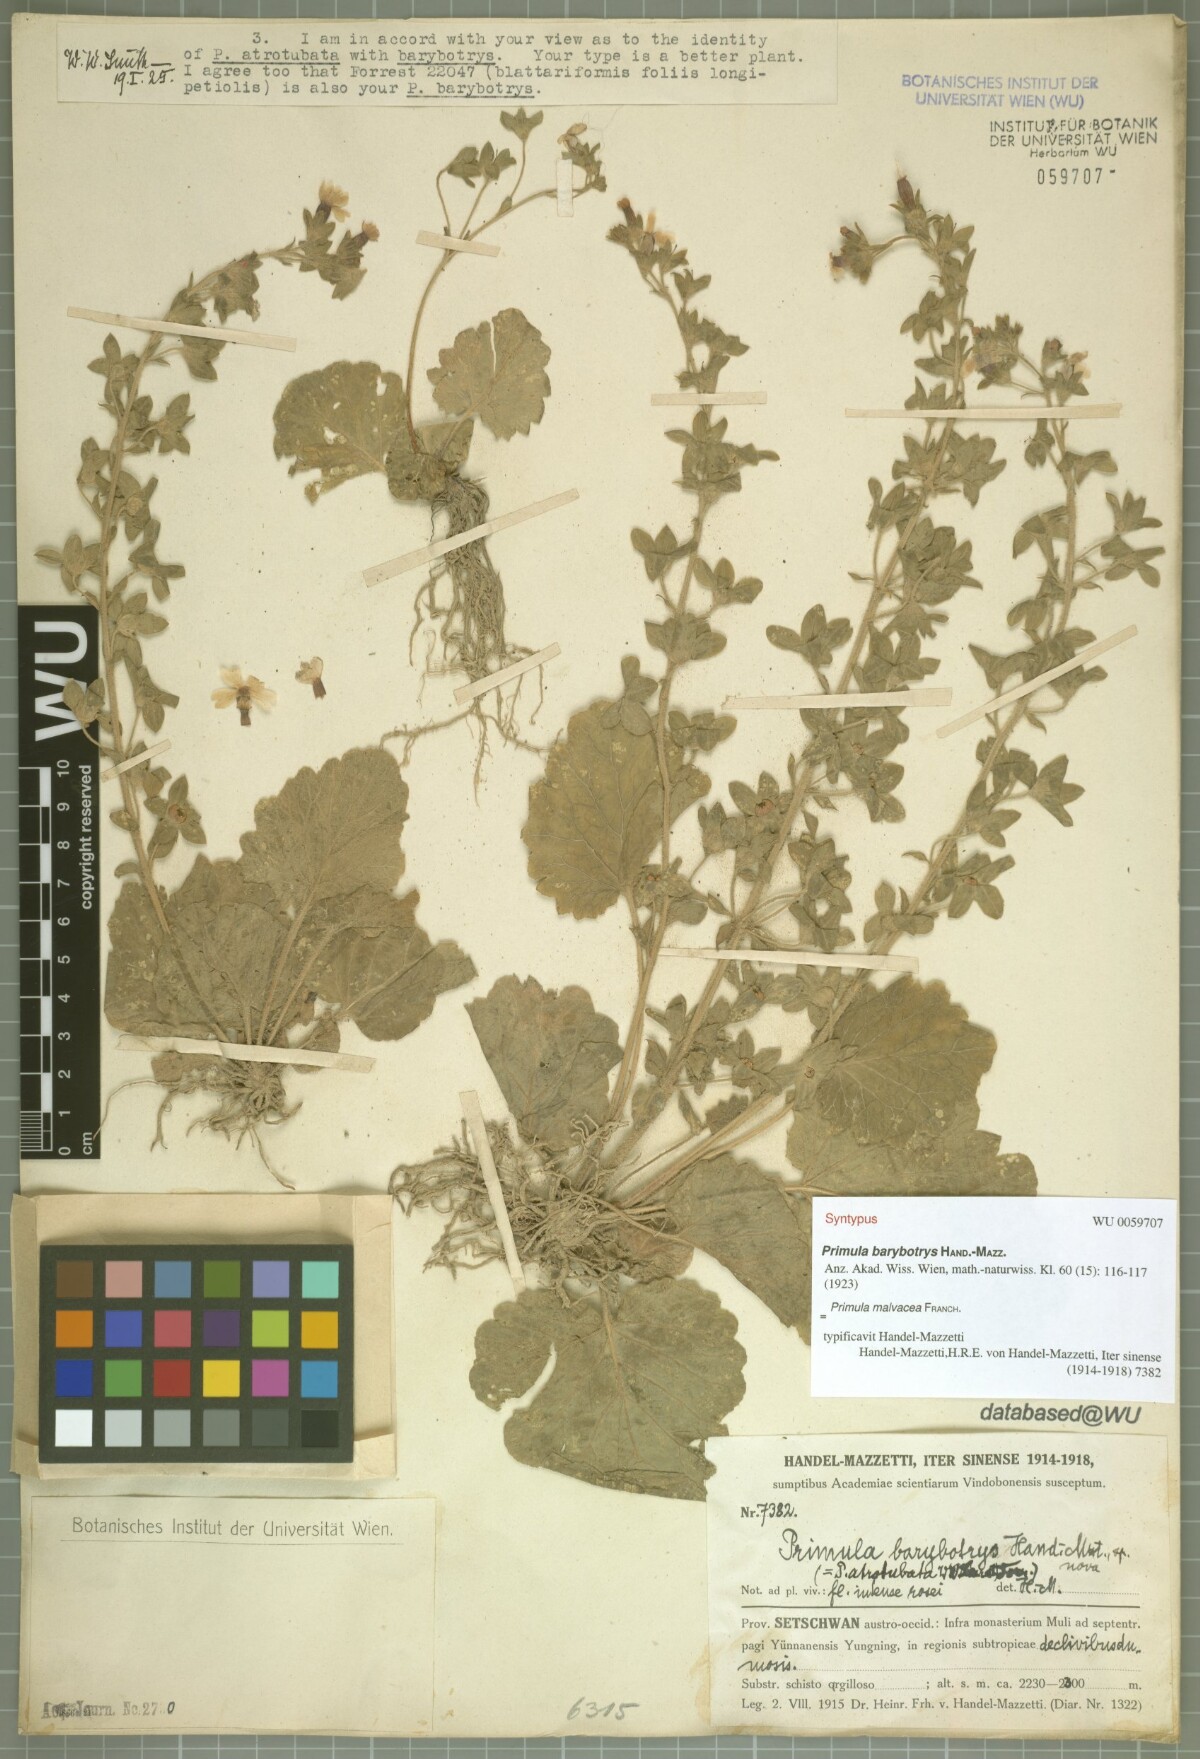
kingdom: Plantae
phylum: Tracheophyta
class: Magnoliopsida
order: Ericales
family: Primulaceae
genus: Primula
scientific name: Primula malvacea
